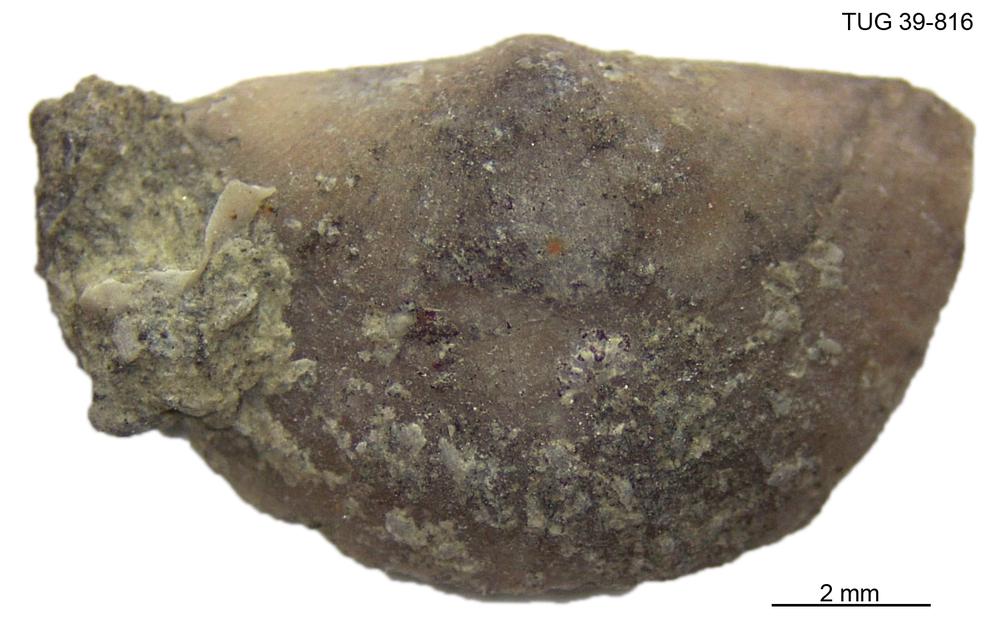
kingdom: Animalia
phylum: Brachiopoda
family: Sowerbyellidae
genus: Sowerbyella
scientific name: Sowerbyella
